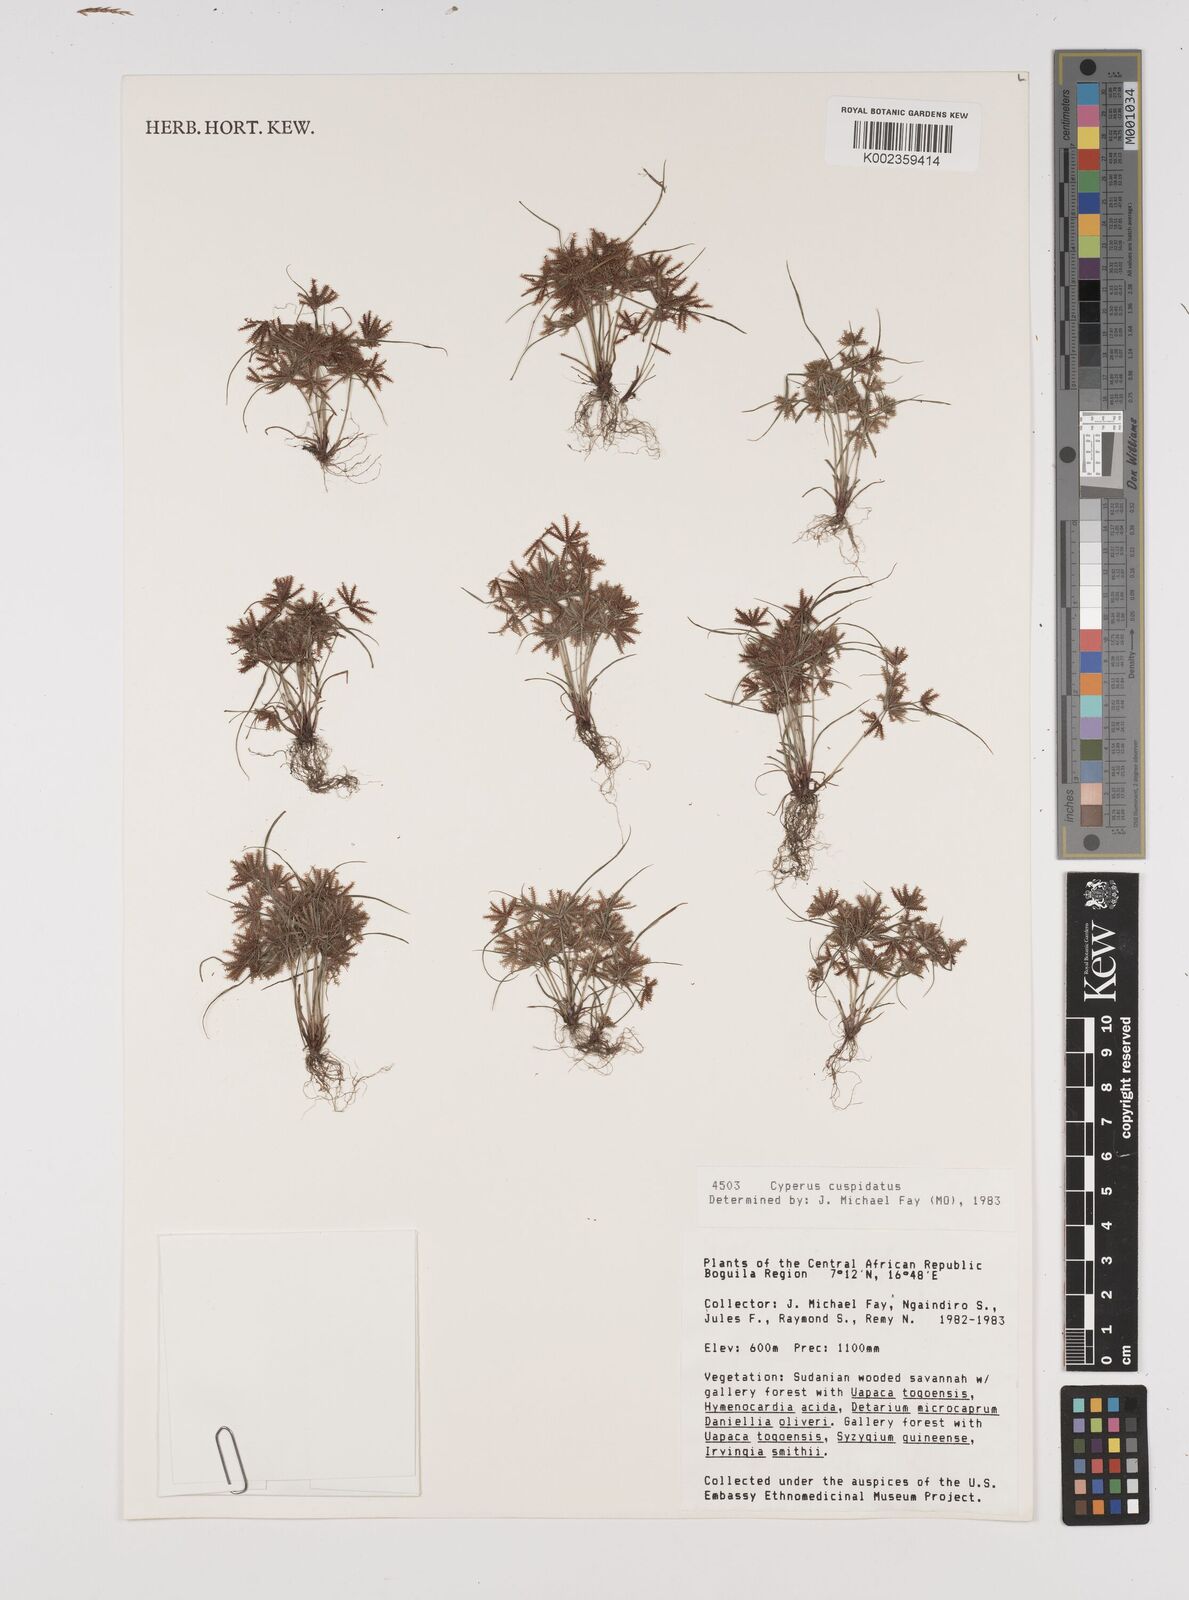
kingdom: Plantae
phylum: Tracheophyta
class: Liliopsida
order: Poales
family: Cyperaceae
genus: Cyperus
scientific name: Cyperus cuspidatus
